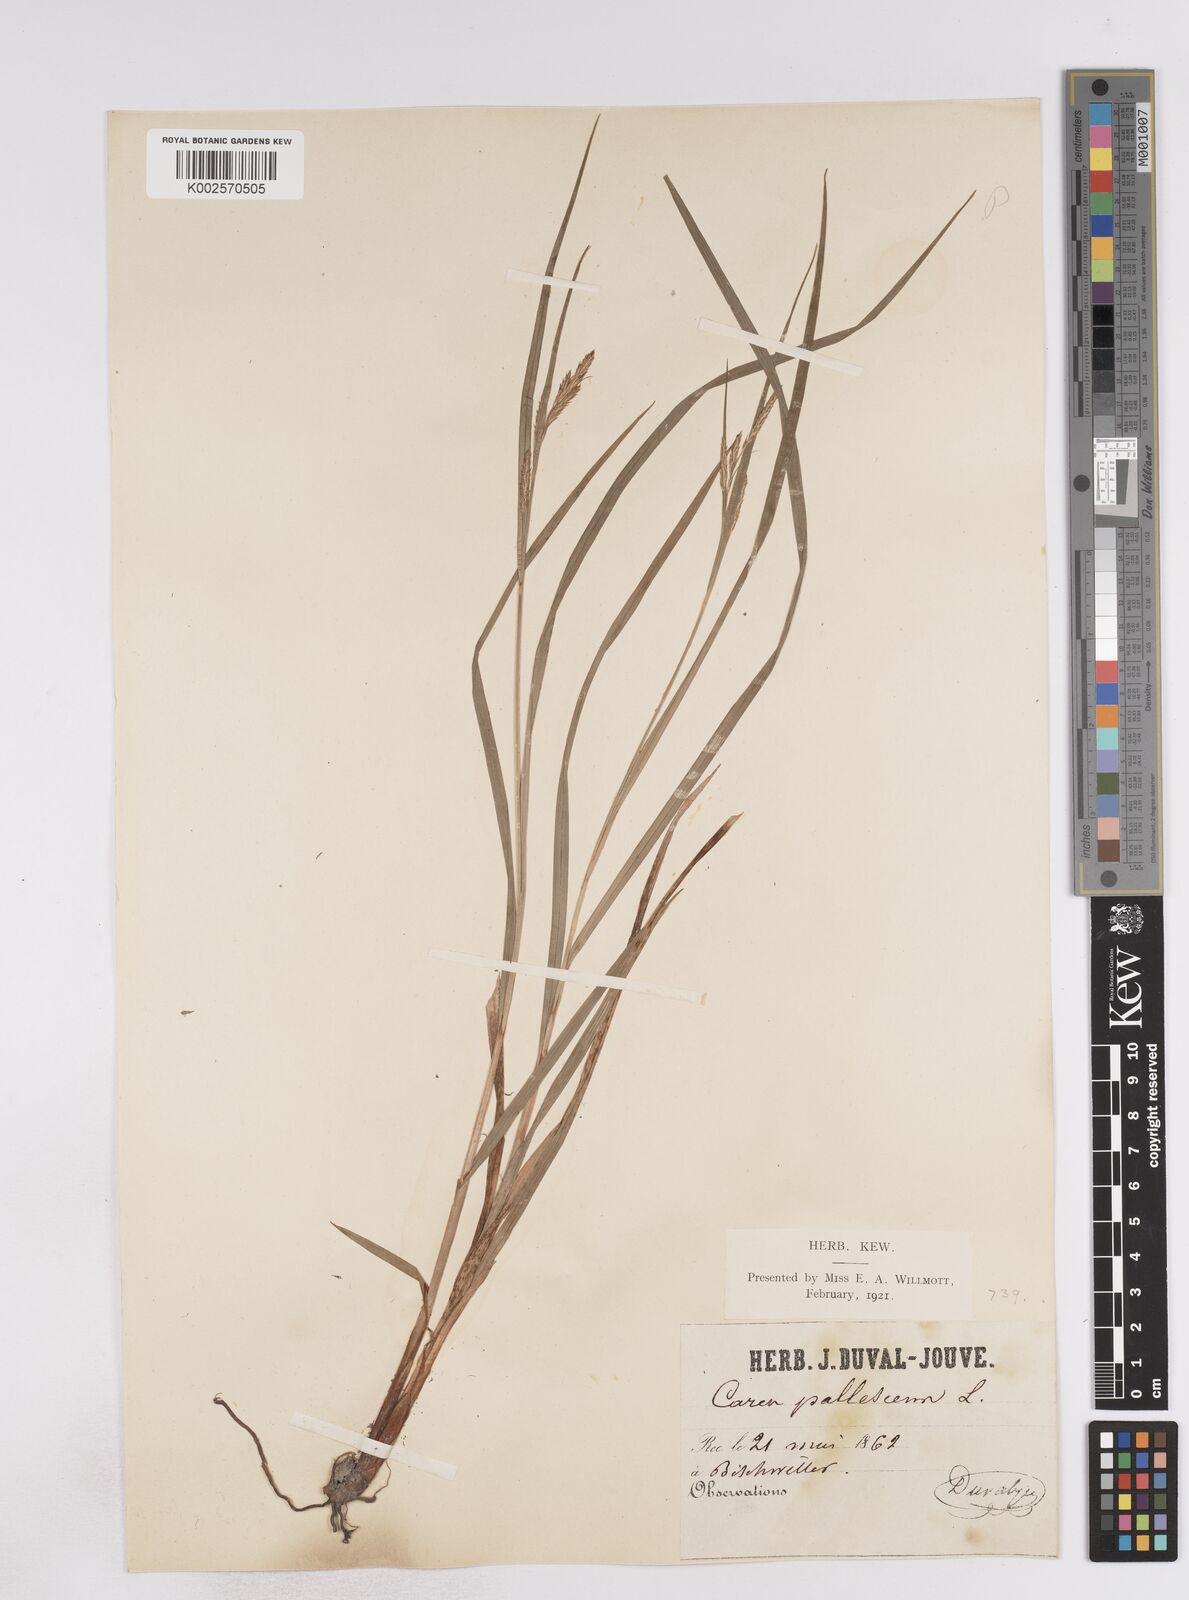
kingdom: Plantae
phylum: Tracheophyta
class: Liliopsida
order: Poales
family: Cyperaceae
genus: Carex
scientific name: Carex pallescens
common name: Pale sedge
